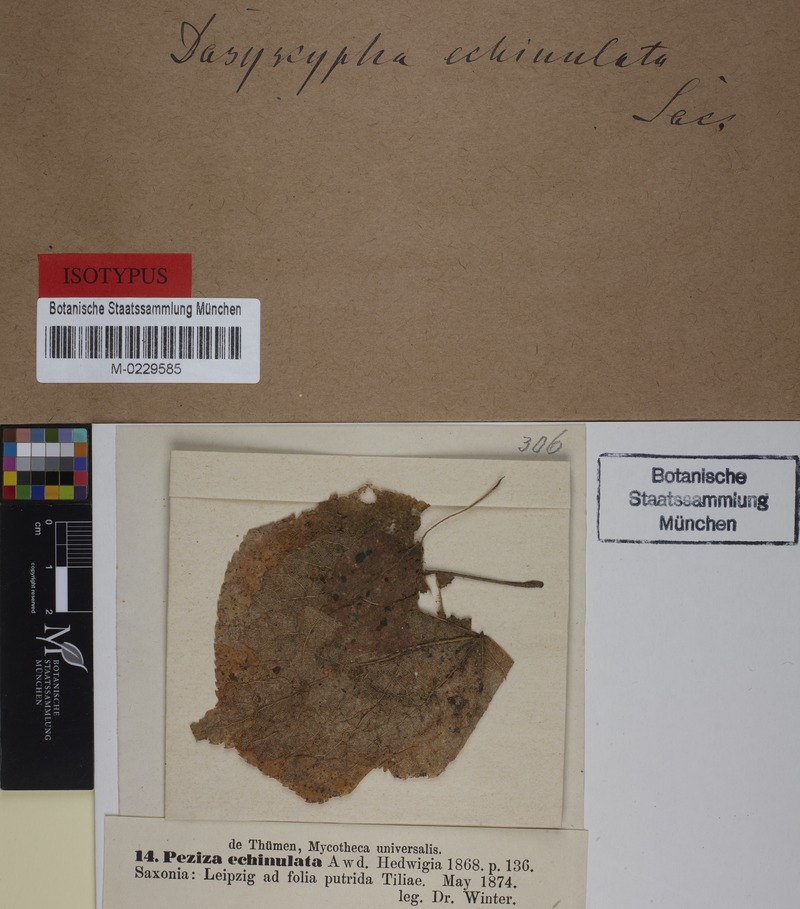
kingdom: Fungi
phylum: Ascomycota
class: Leotiomycetes
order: Helotiales
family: Lachnaceae
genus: Lachnum
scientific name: Lachnum echinulatum
